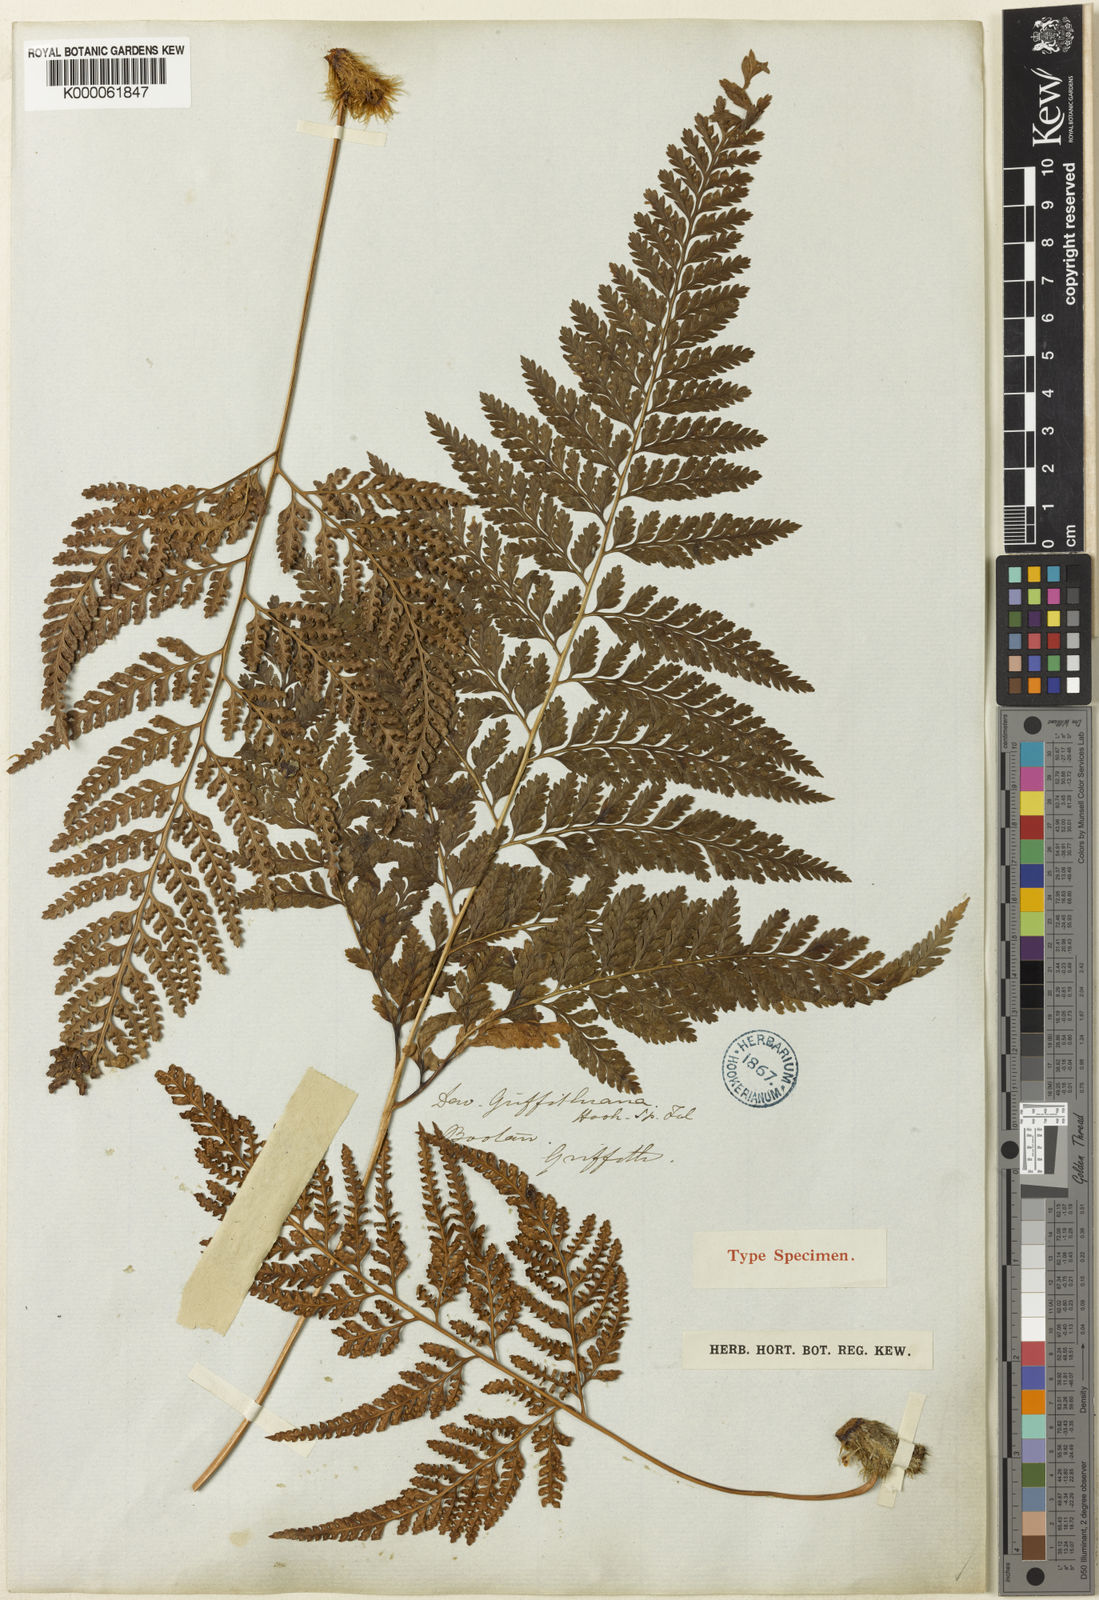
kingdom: Plantae
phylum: Tracheophyta
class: Polypodiopsida
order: Polypodiales
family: Davalliaceae
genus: Davallia
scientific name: Davallia griffithiana
